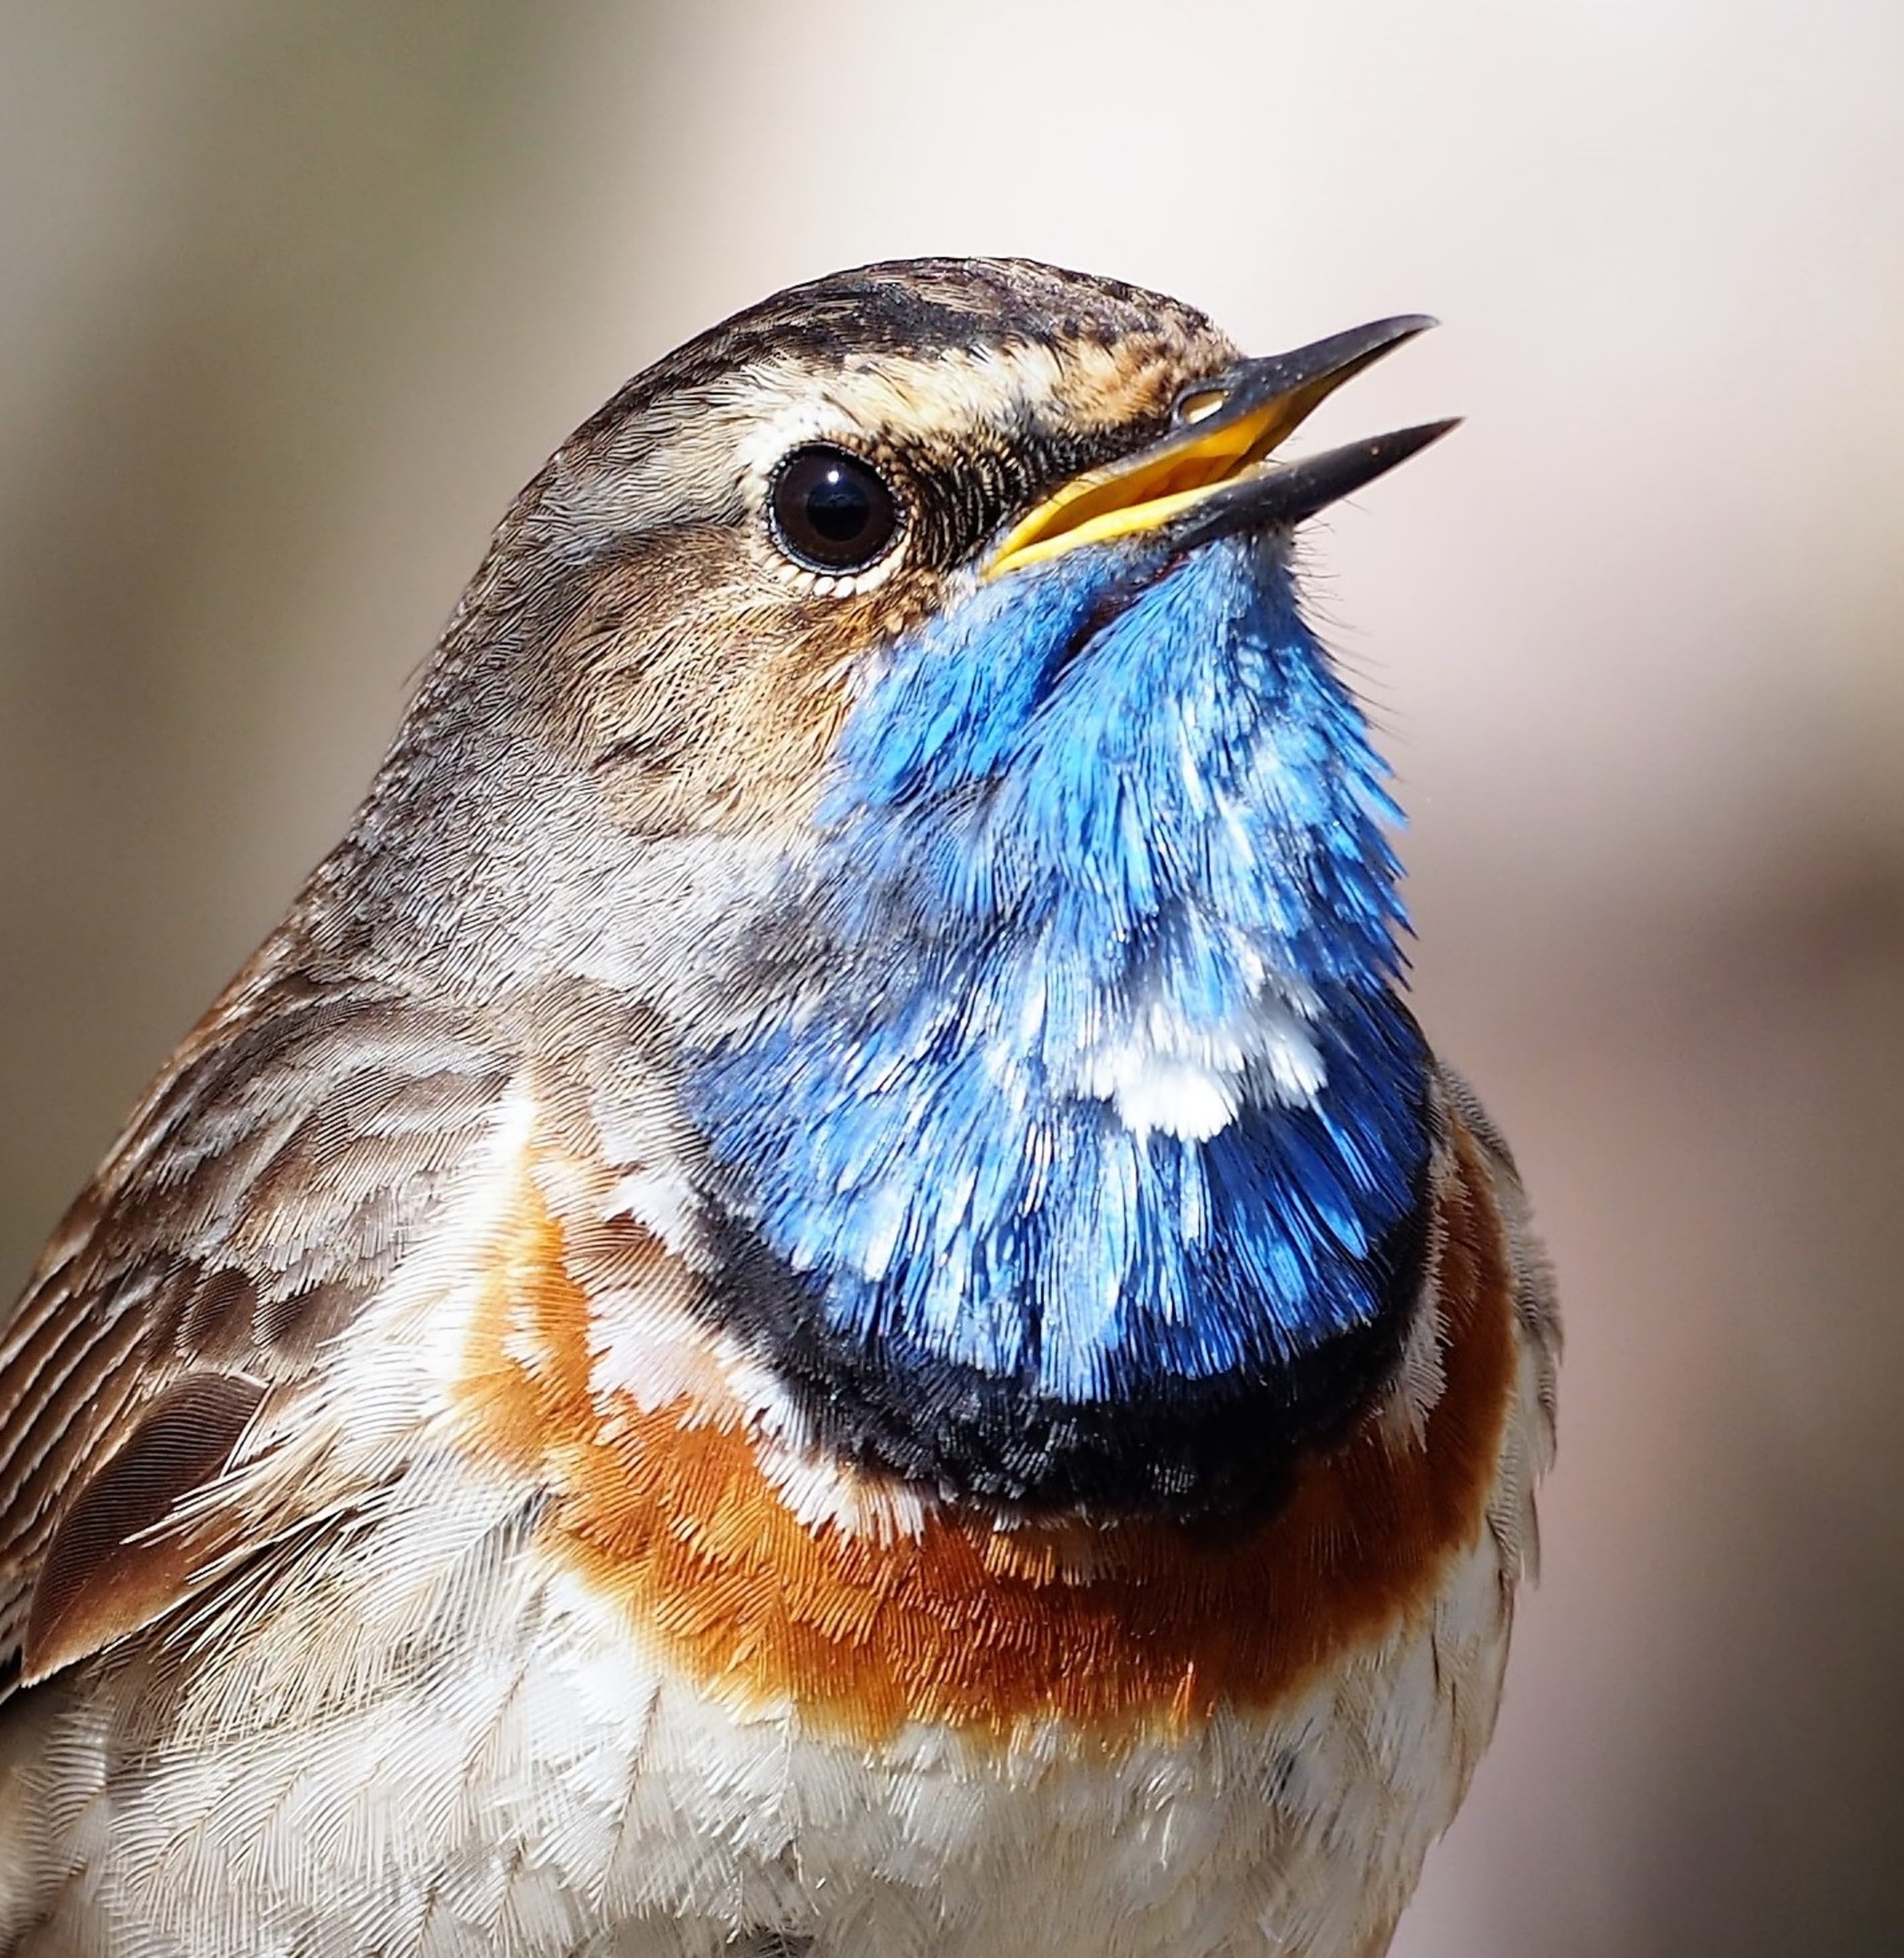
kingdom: Animalia
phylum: Chordata
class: Aves
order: Passeriformes
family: Muscicapidae
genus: Luscinia
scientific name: Luscinia svecica
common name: Blåhals
